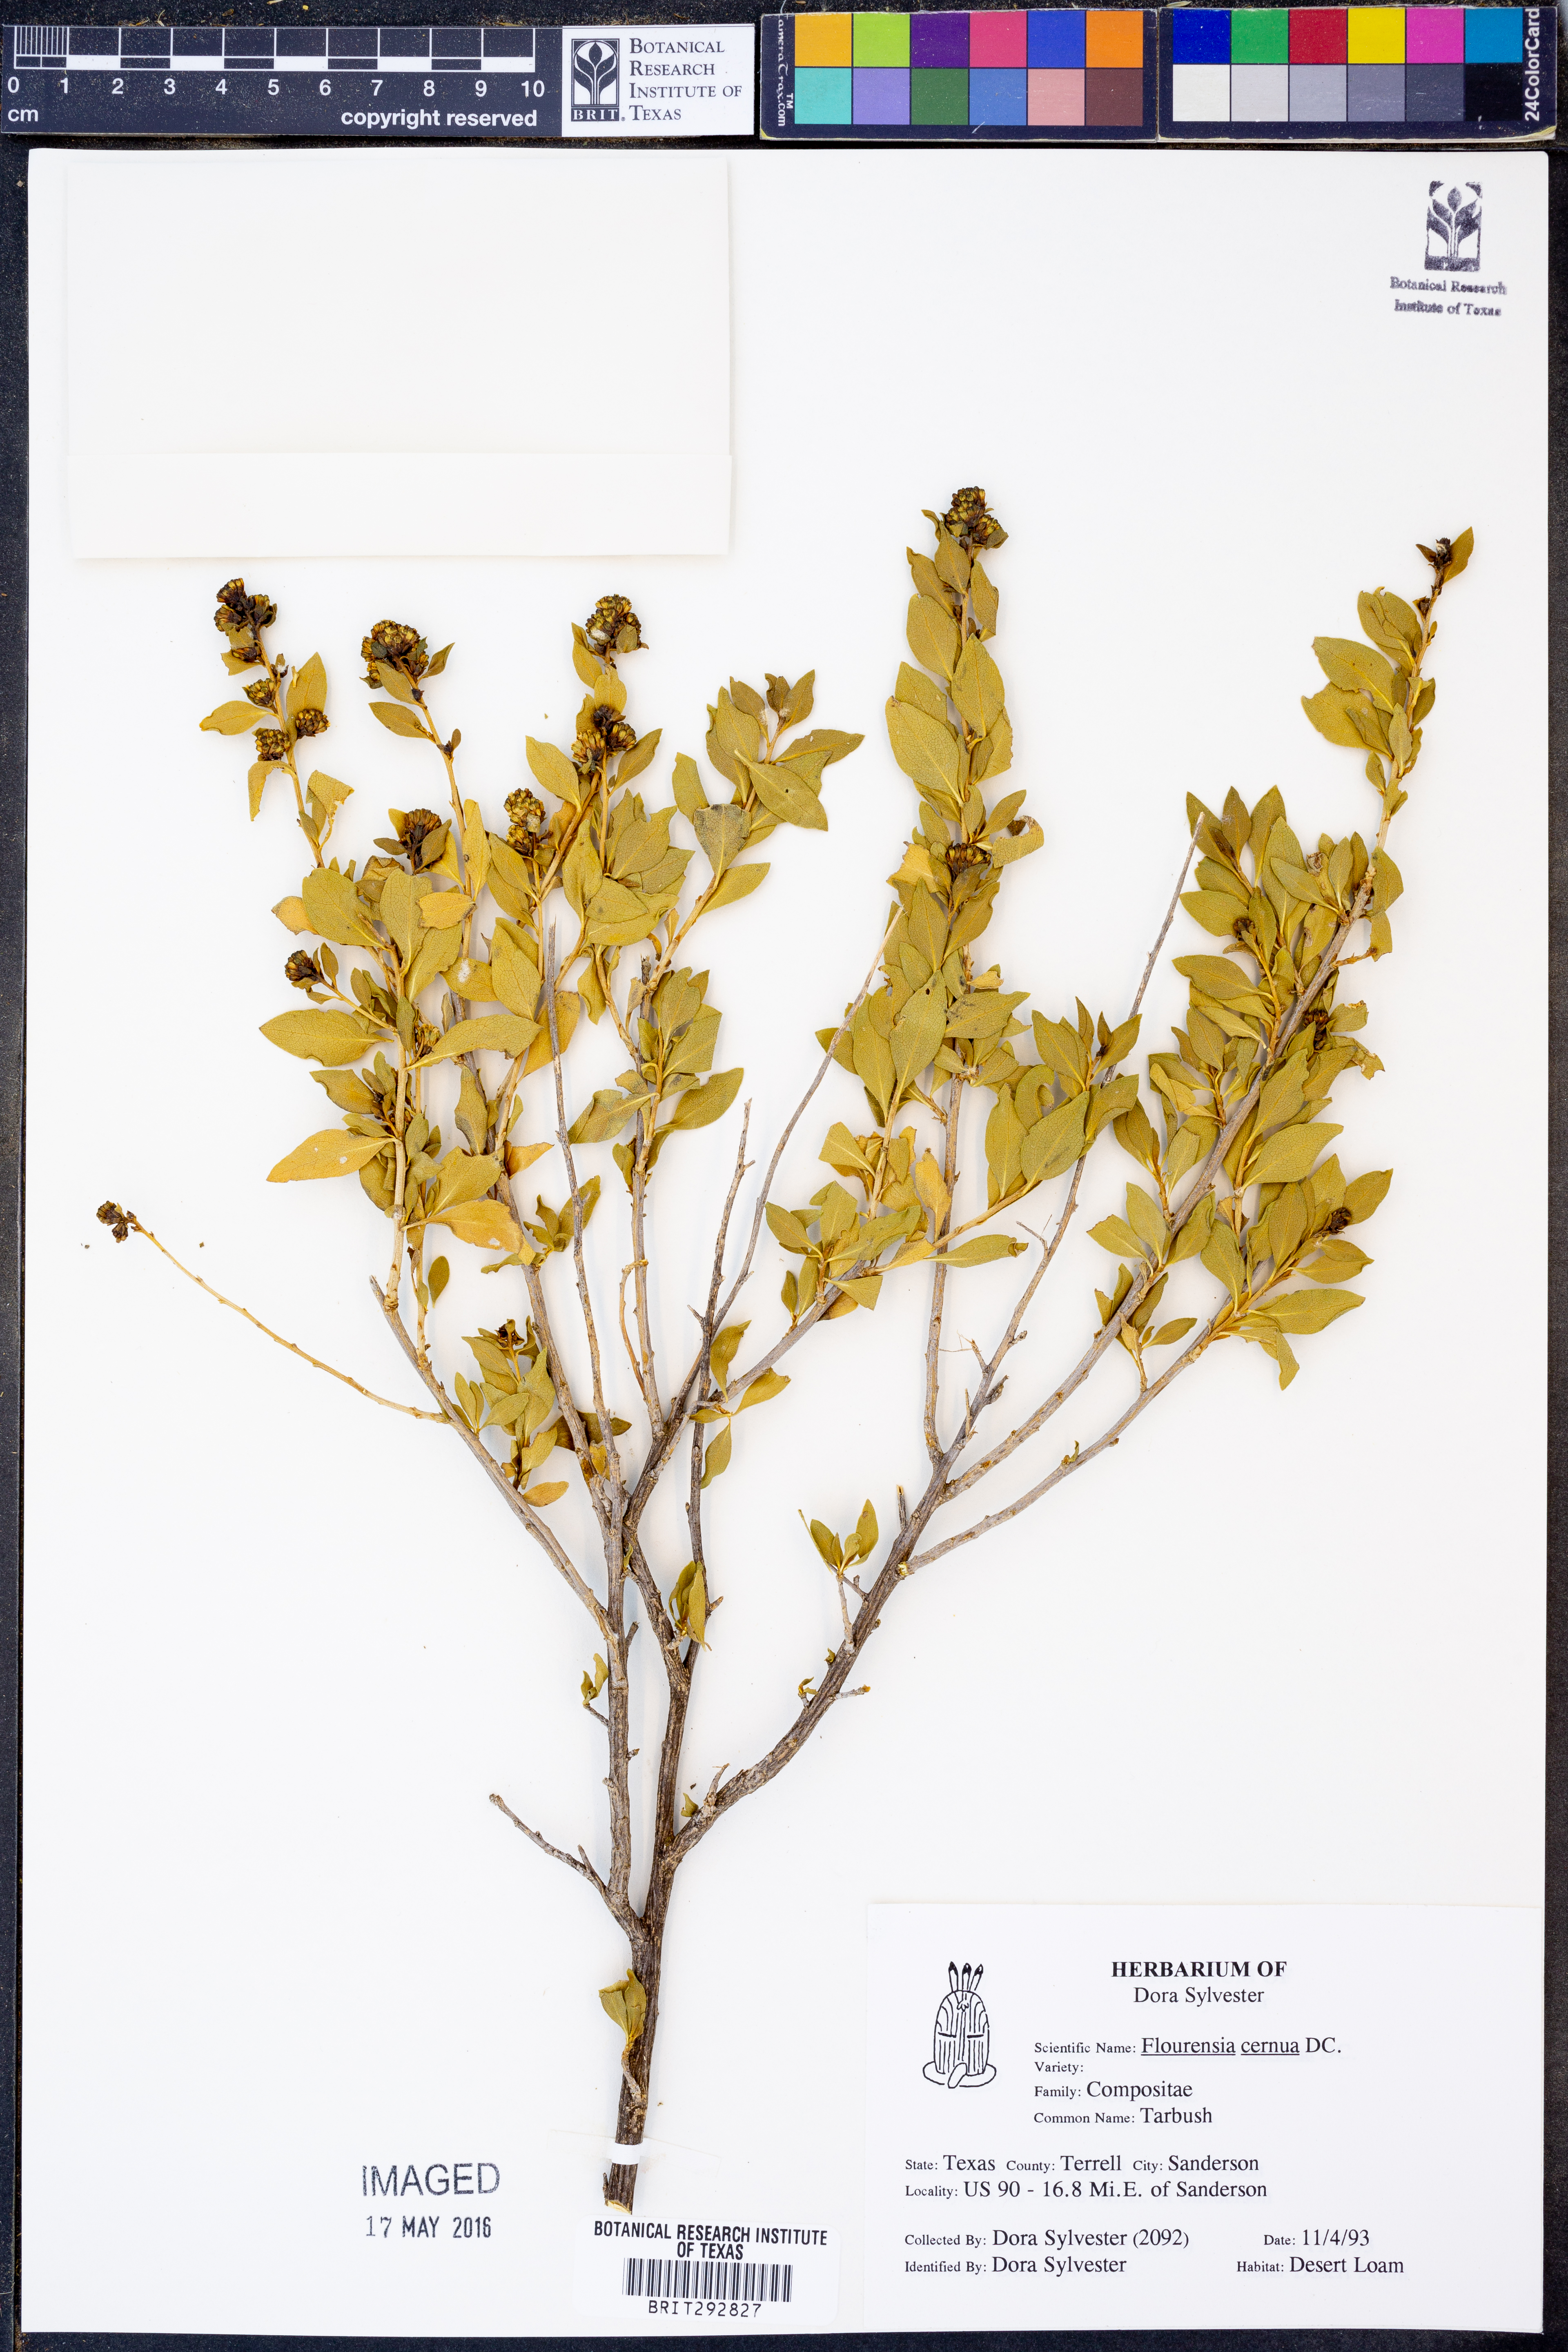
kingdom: Plantae
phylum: Tracheophyta
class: Magnoliopsida
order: Asterales
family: Asteraceae
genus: Flourensia
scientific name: Flourensia cernua
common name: Varnishbush
